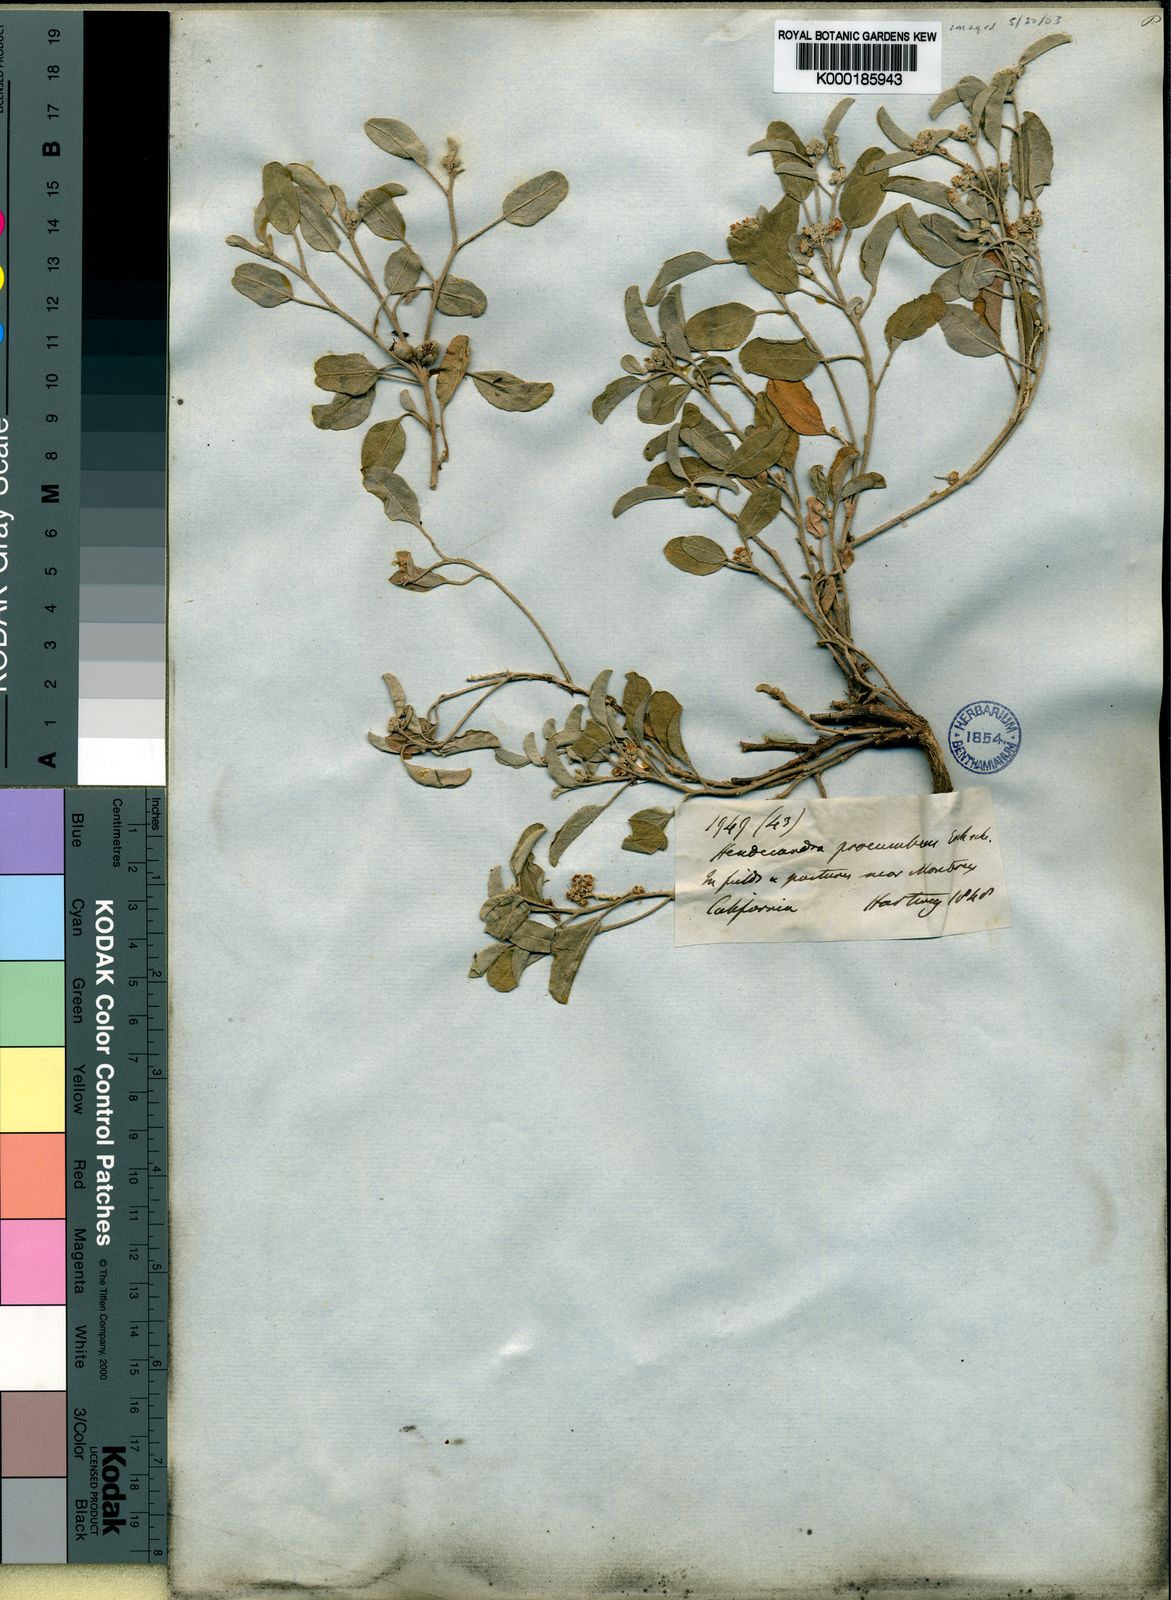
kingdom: Plantae
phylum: Tracheophyta
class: Magnoliopsida
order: Malpighiales
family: Euphorbiaceae
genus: Croton
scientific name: Croton
